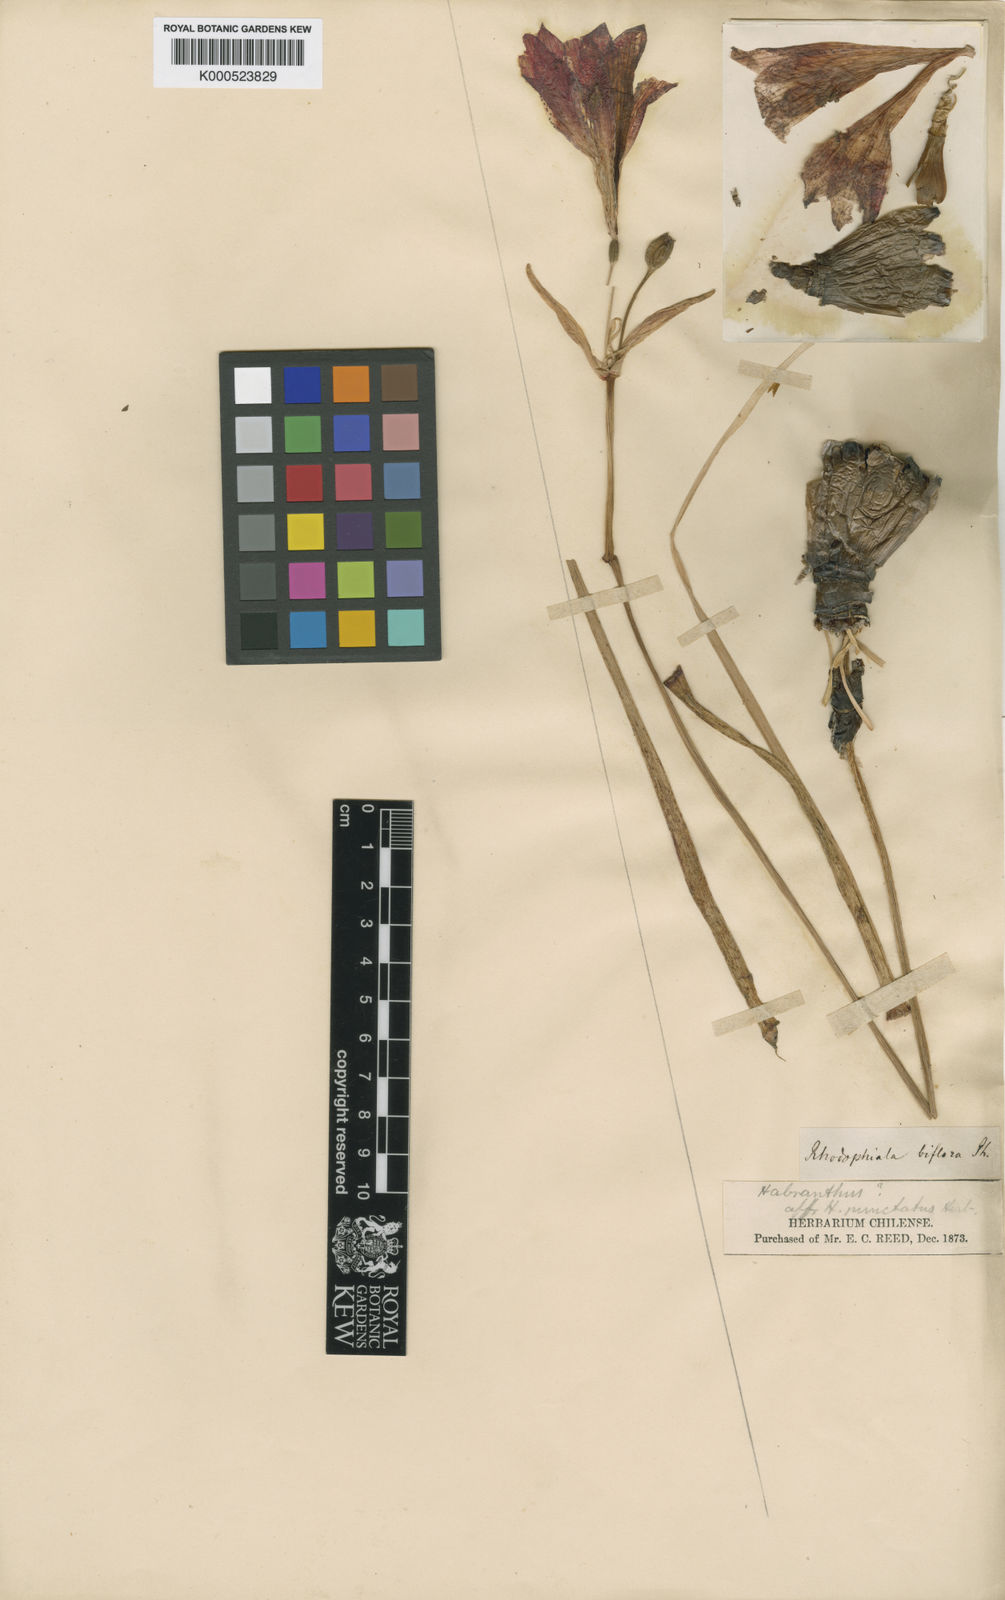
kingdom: Plantae
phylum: Tracheophyta
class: Liliopsida
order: Asparagales
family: Amaryllidaceae
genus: Phycella
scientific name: Phycella chilensis
